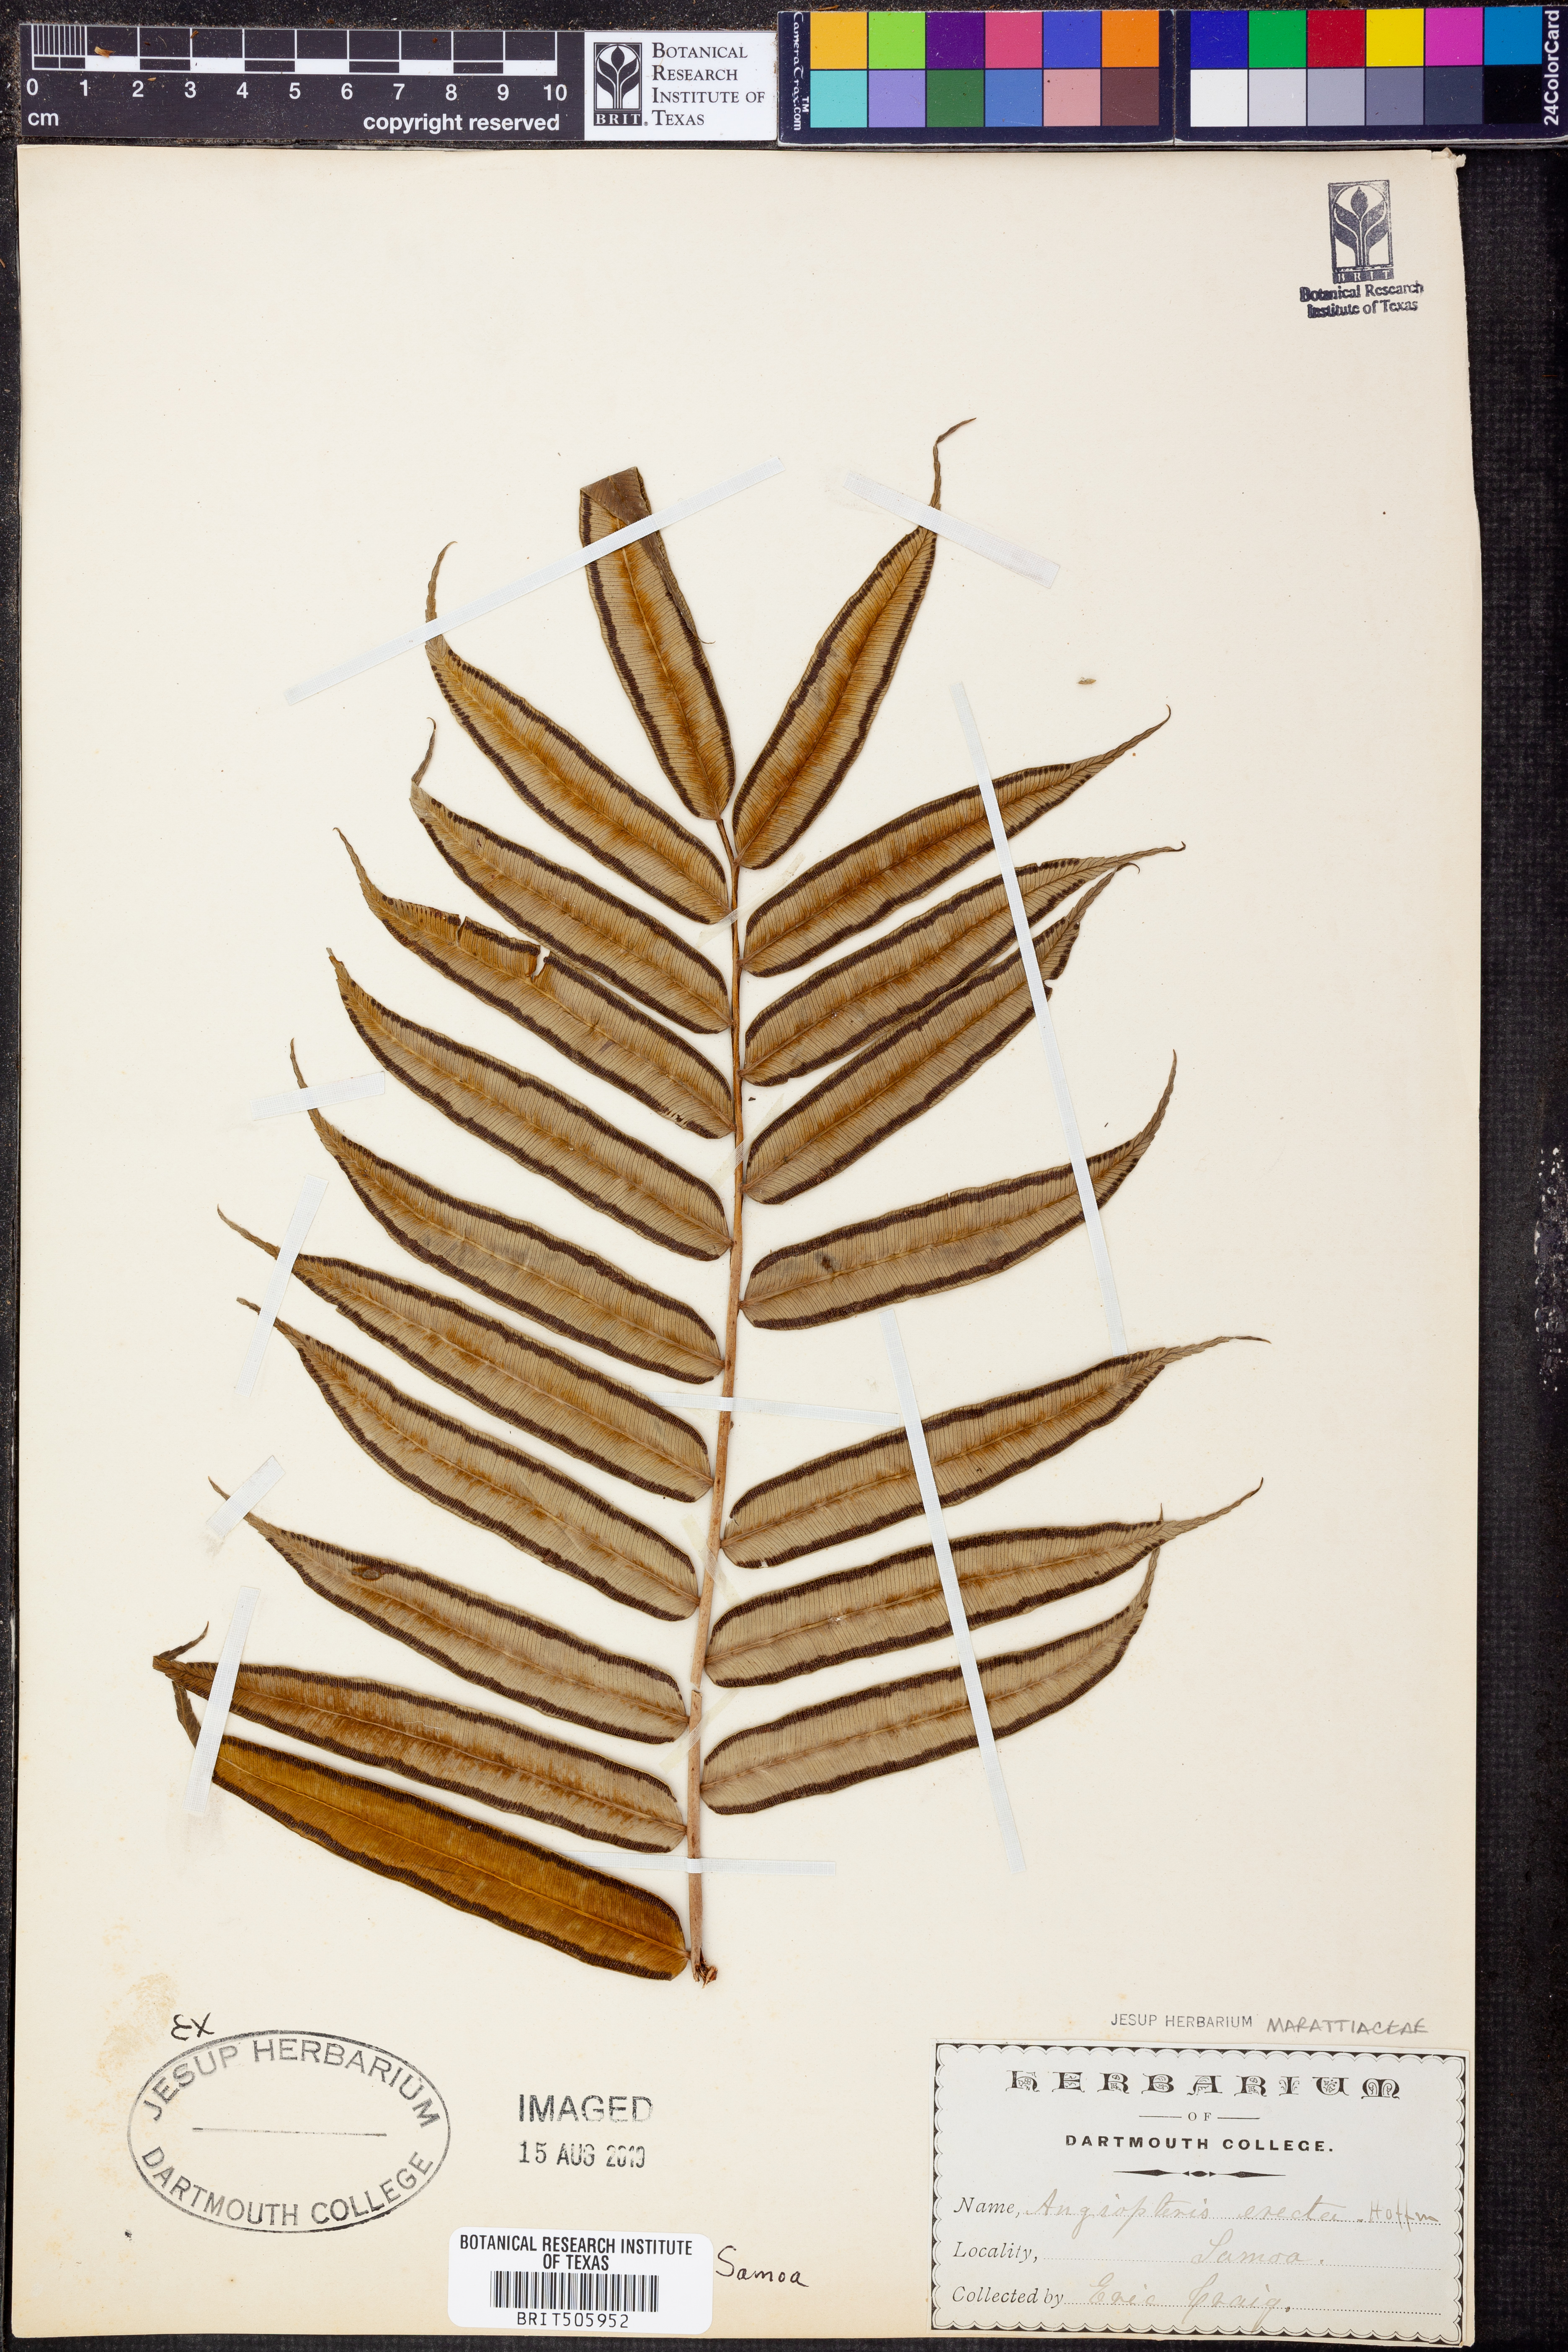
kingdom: Plantae
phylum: Tracheophyta
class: Polypodiopsida
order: Marattiales
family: Marattiaceae
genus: Angiopteris
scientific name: Angiopteris evecta
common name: Mule's-foot fern
